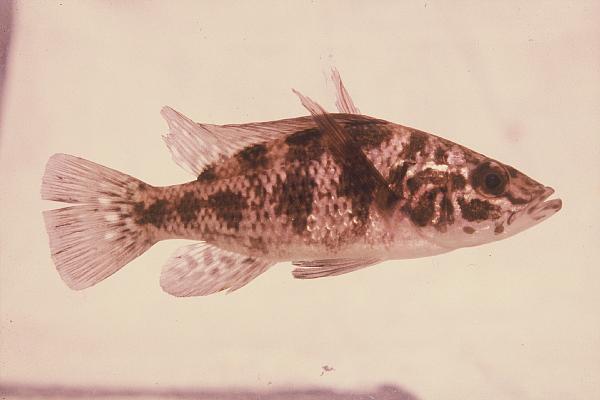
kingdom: Animalia
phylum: Chordata
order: Perciformes
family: Cichlidae
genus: Serranochromis
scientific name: Serranochromis longimanus
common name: Longfin largemouth
